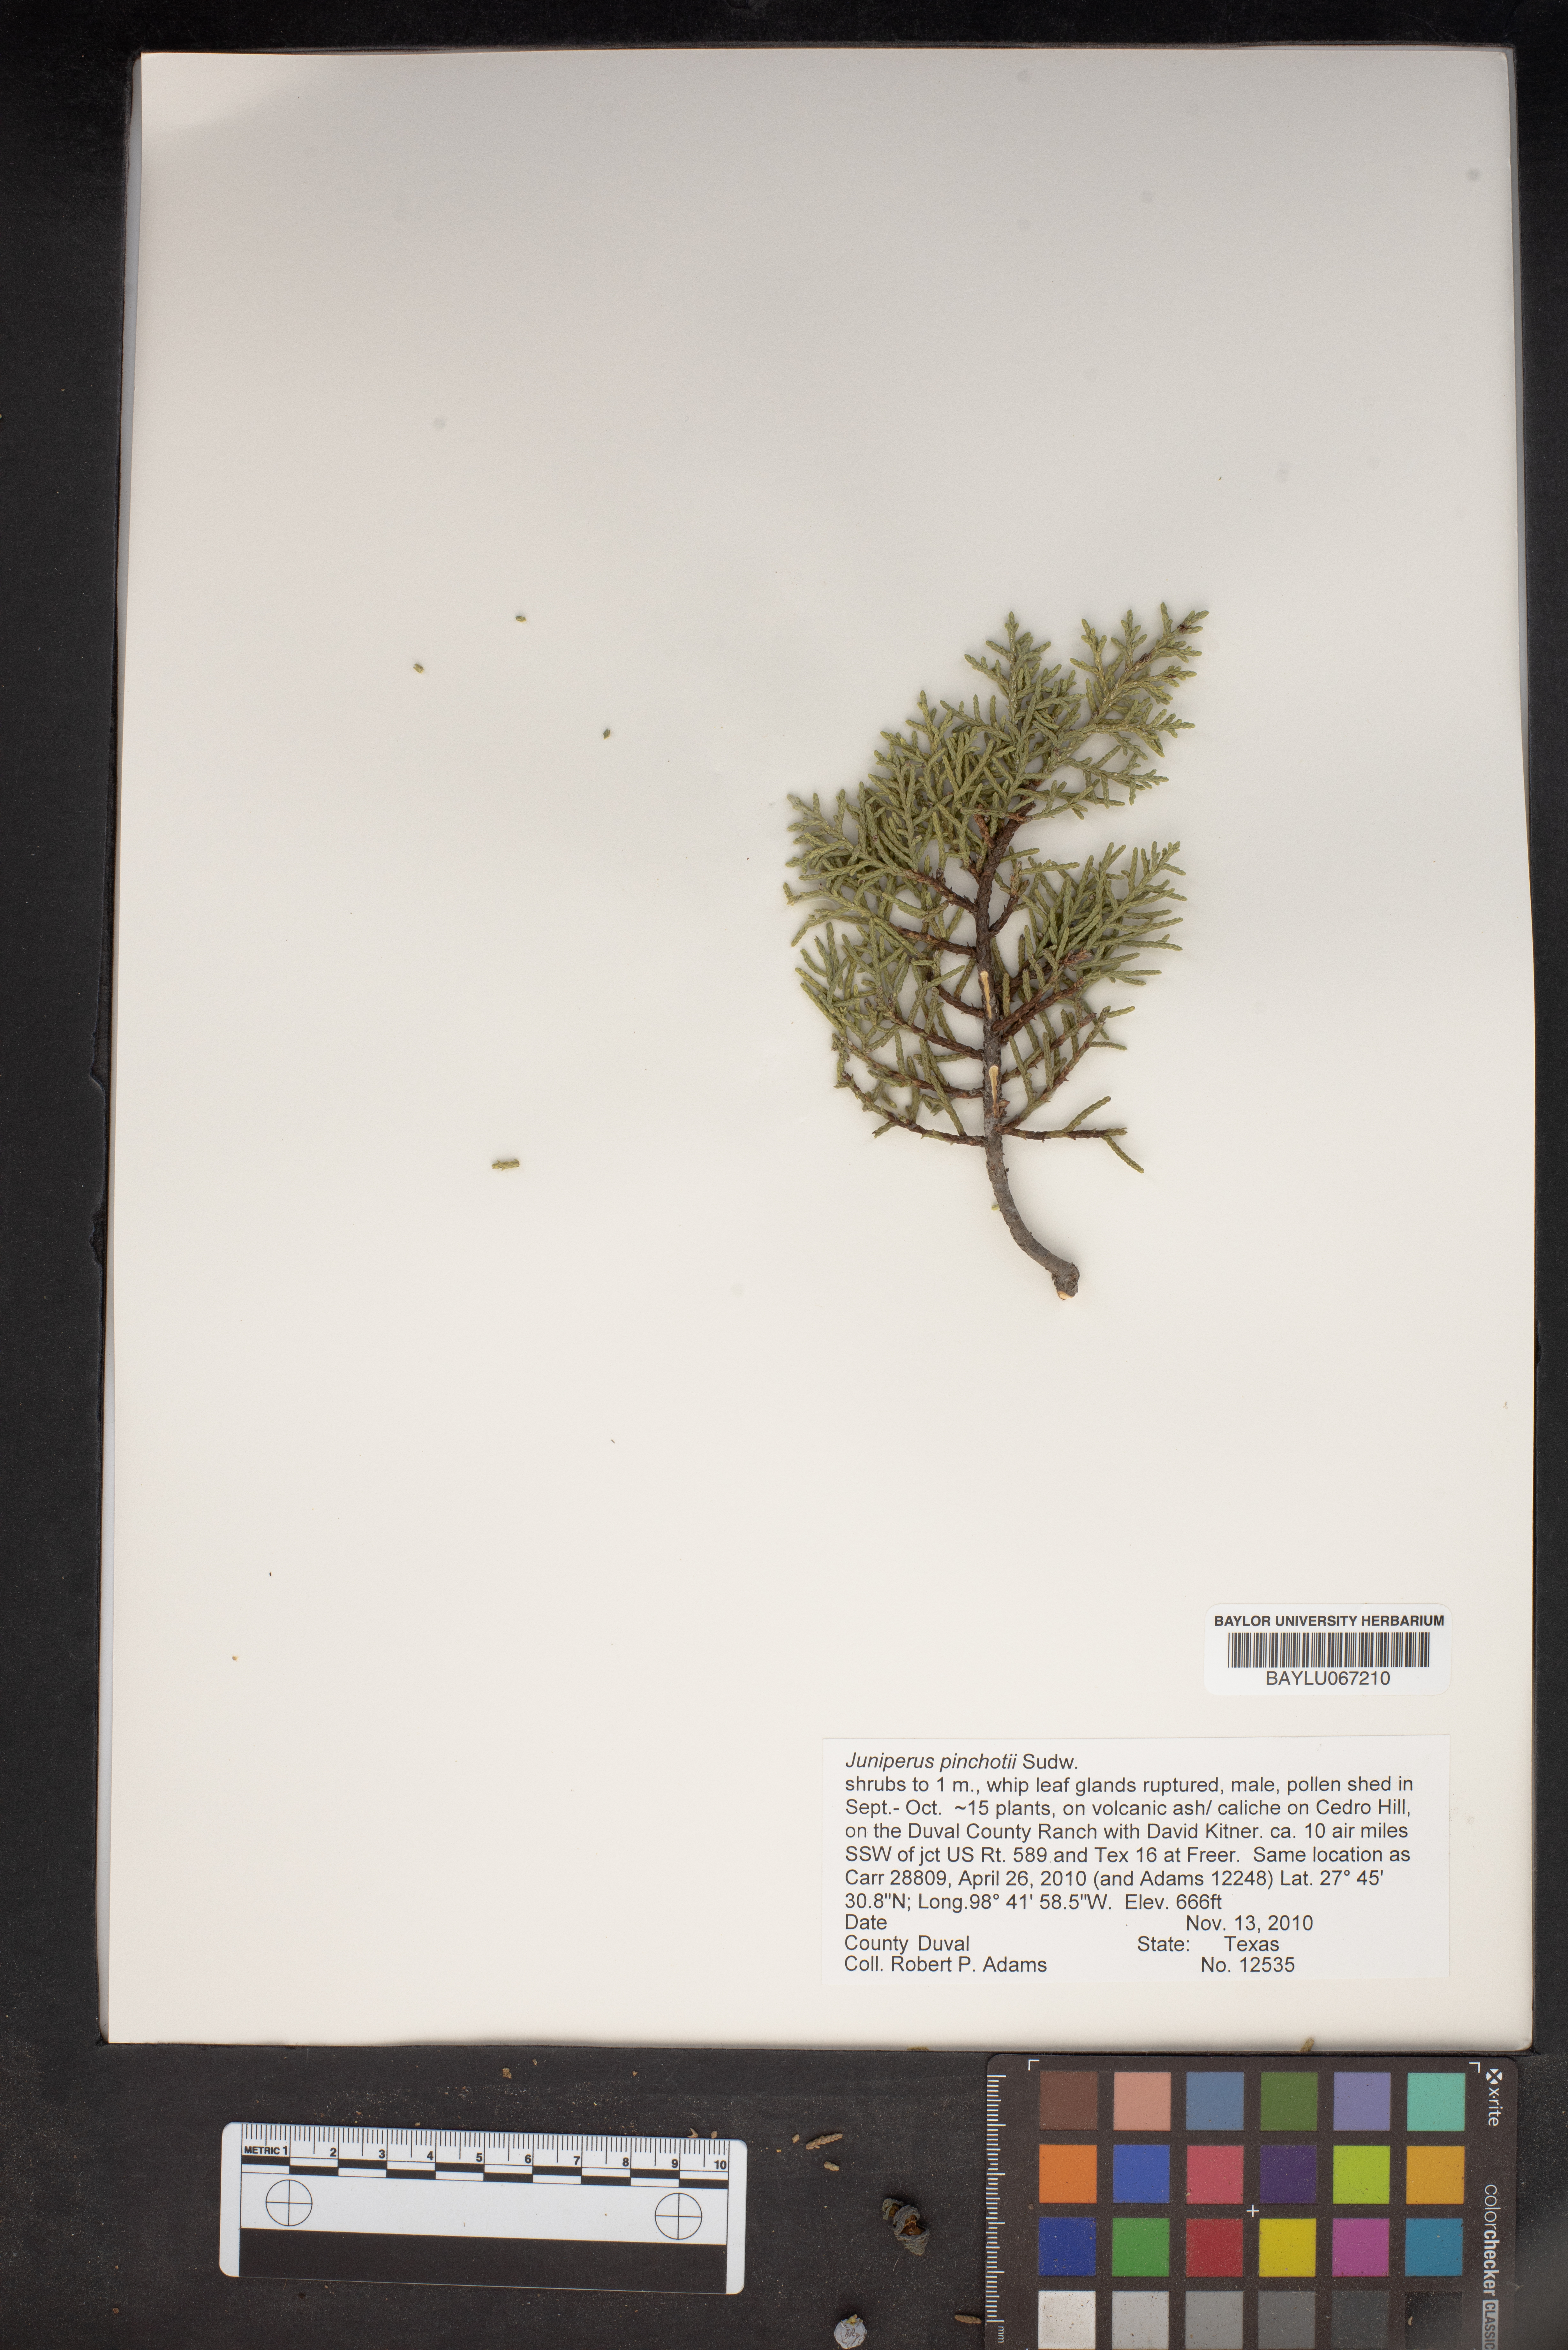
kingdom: Plantae
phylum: Tracheophyta
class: Pinopsida
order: Pinales
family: Cupressaceae
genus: Juniperus
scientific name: Juniperus pinchotii
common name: Pinchot juniper
